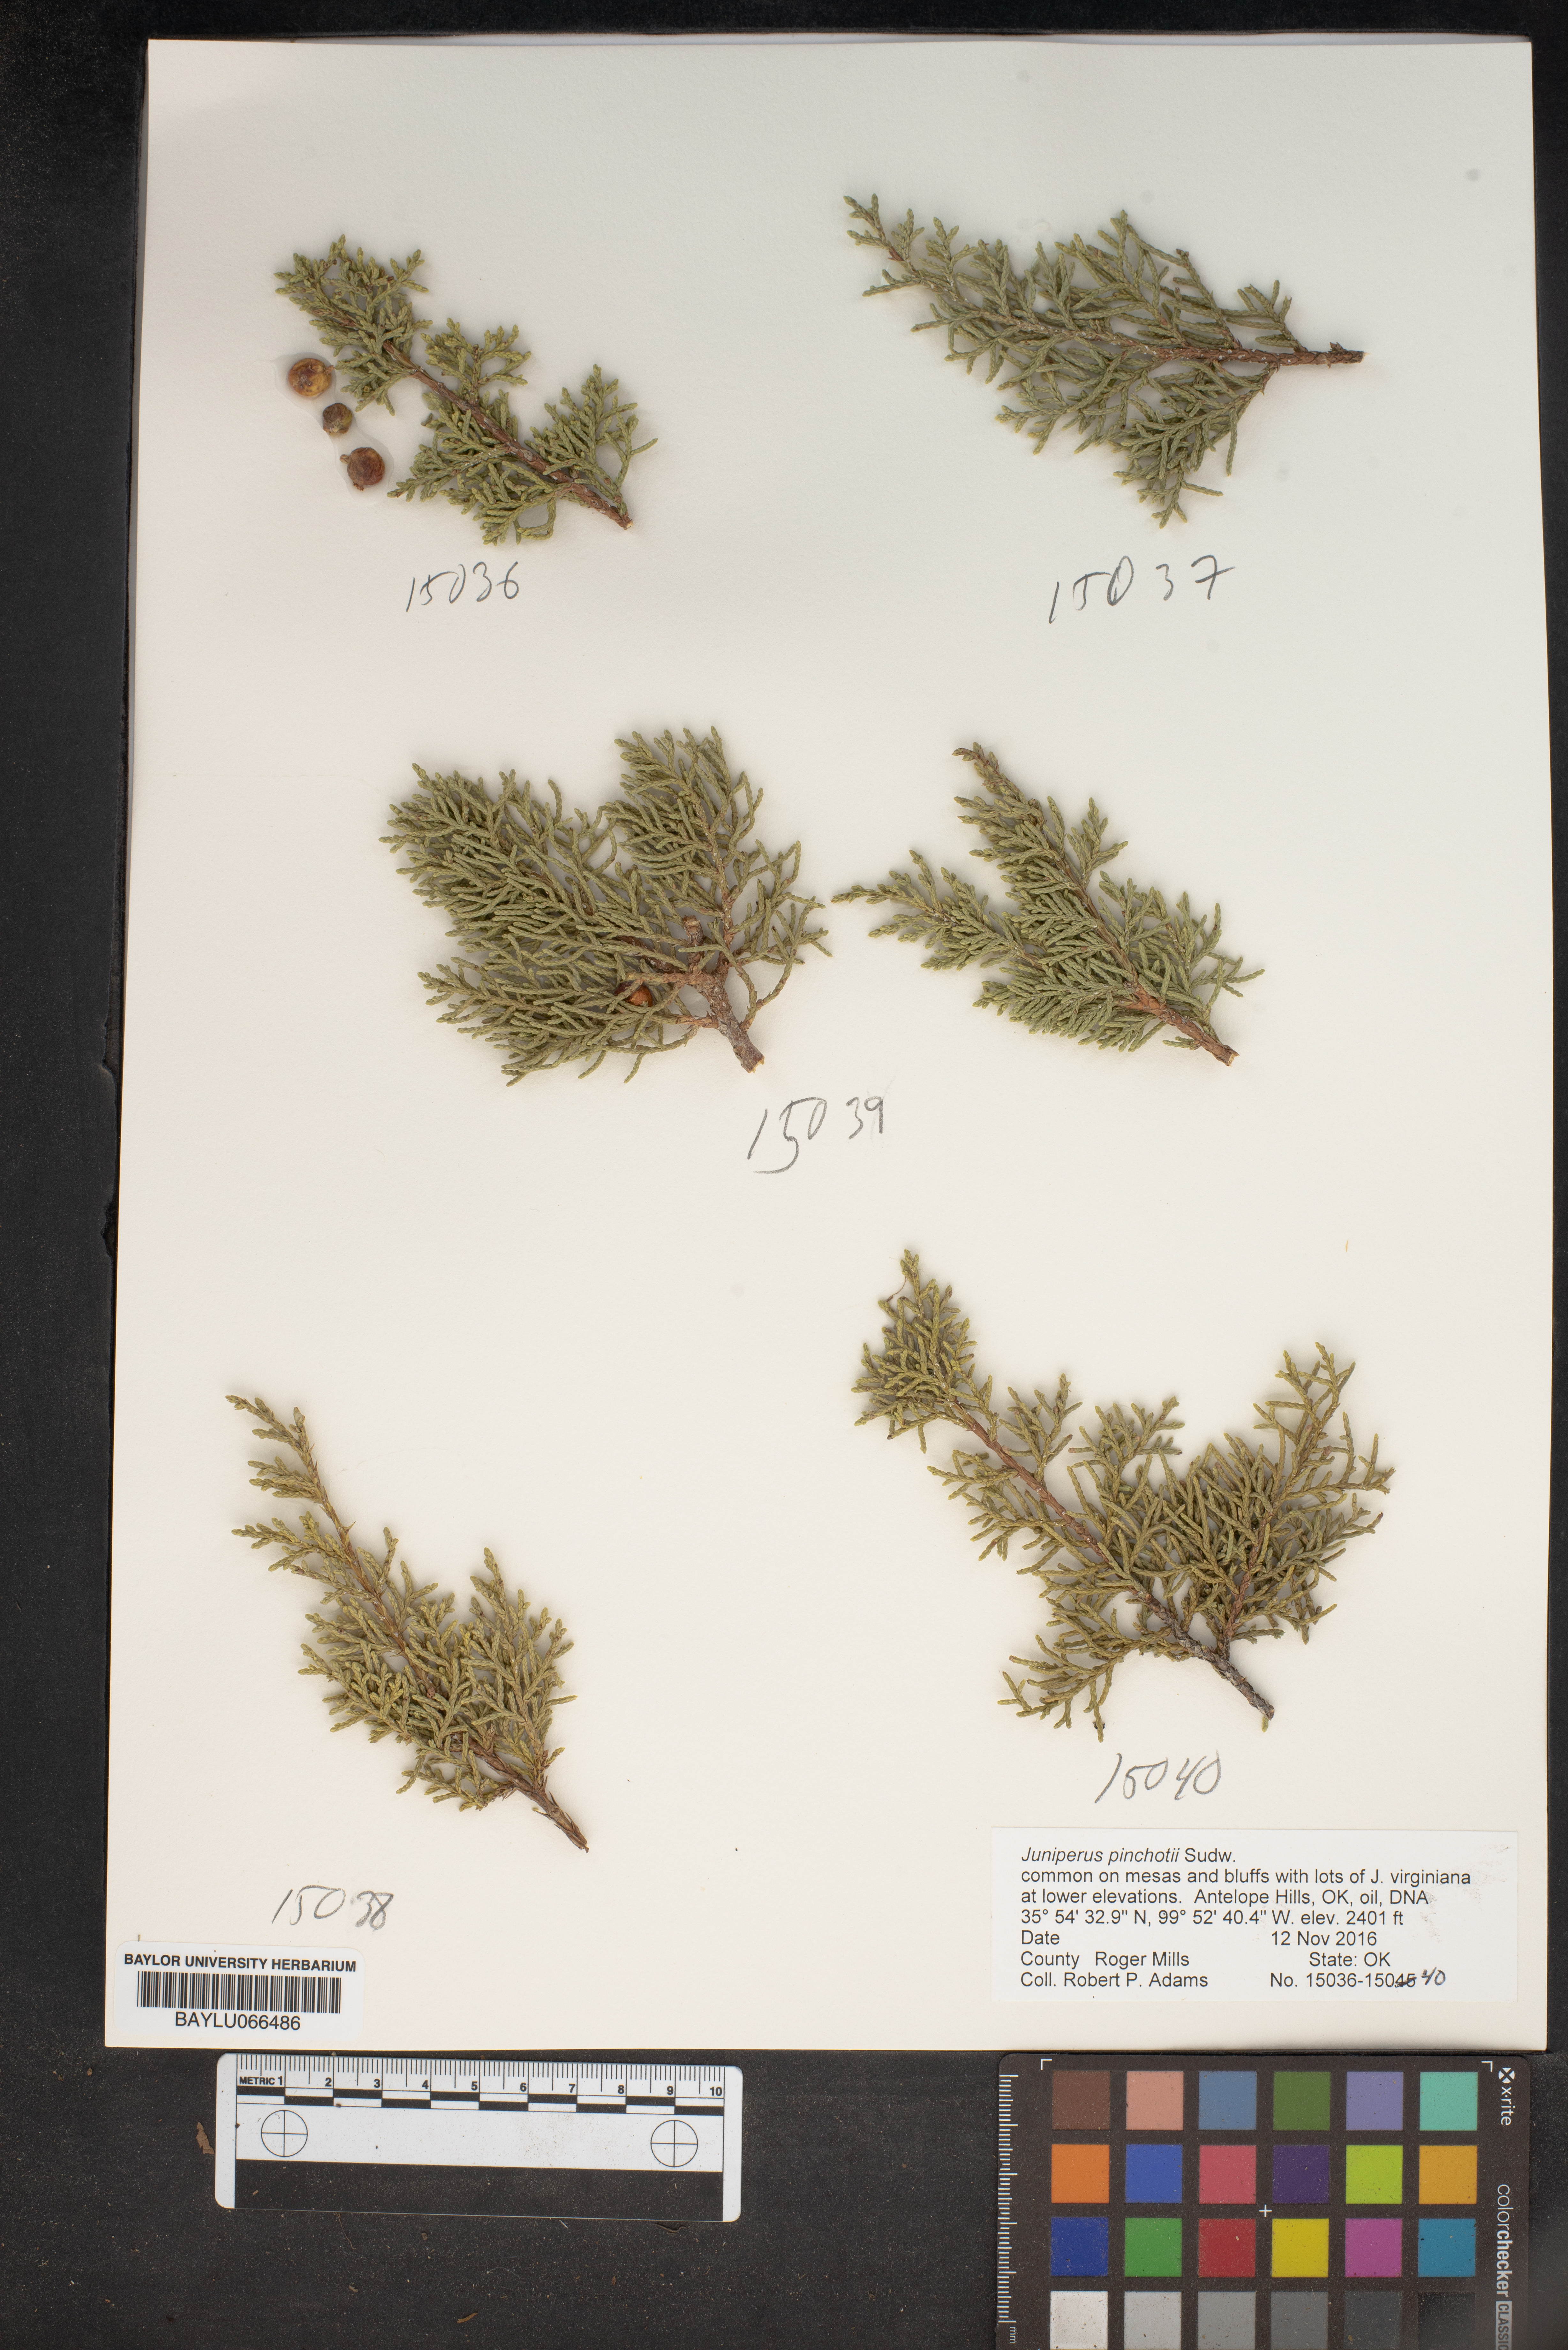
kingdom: Plantae
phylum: Tracheophyta
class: Pinopsida
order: Pinales
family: Cupressaceae
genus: Juniperus
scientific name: Juniperus pinchotii
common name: Pinchot juniper
